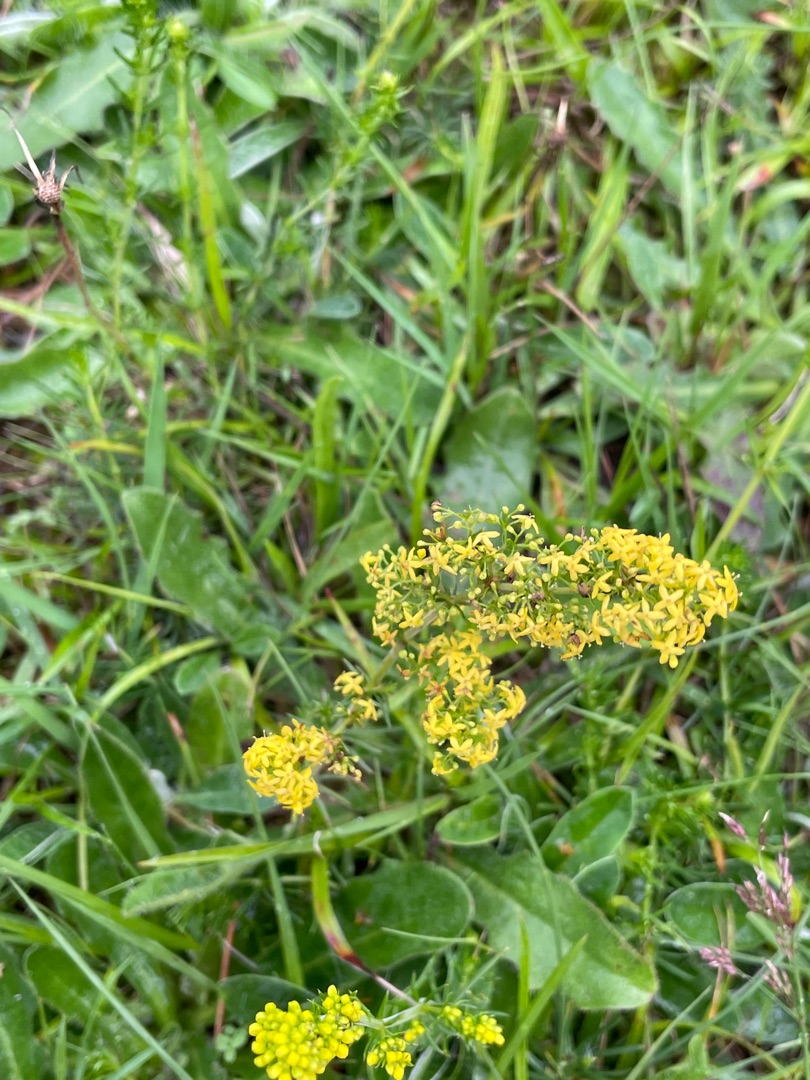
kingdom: Plantae
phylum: Tracheophyta
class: Magnoliopsida
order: Gentianales
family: Rubiaceae
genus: Galium
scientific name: Galium verum
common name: Gul snerre
